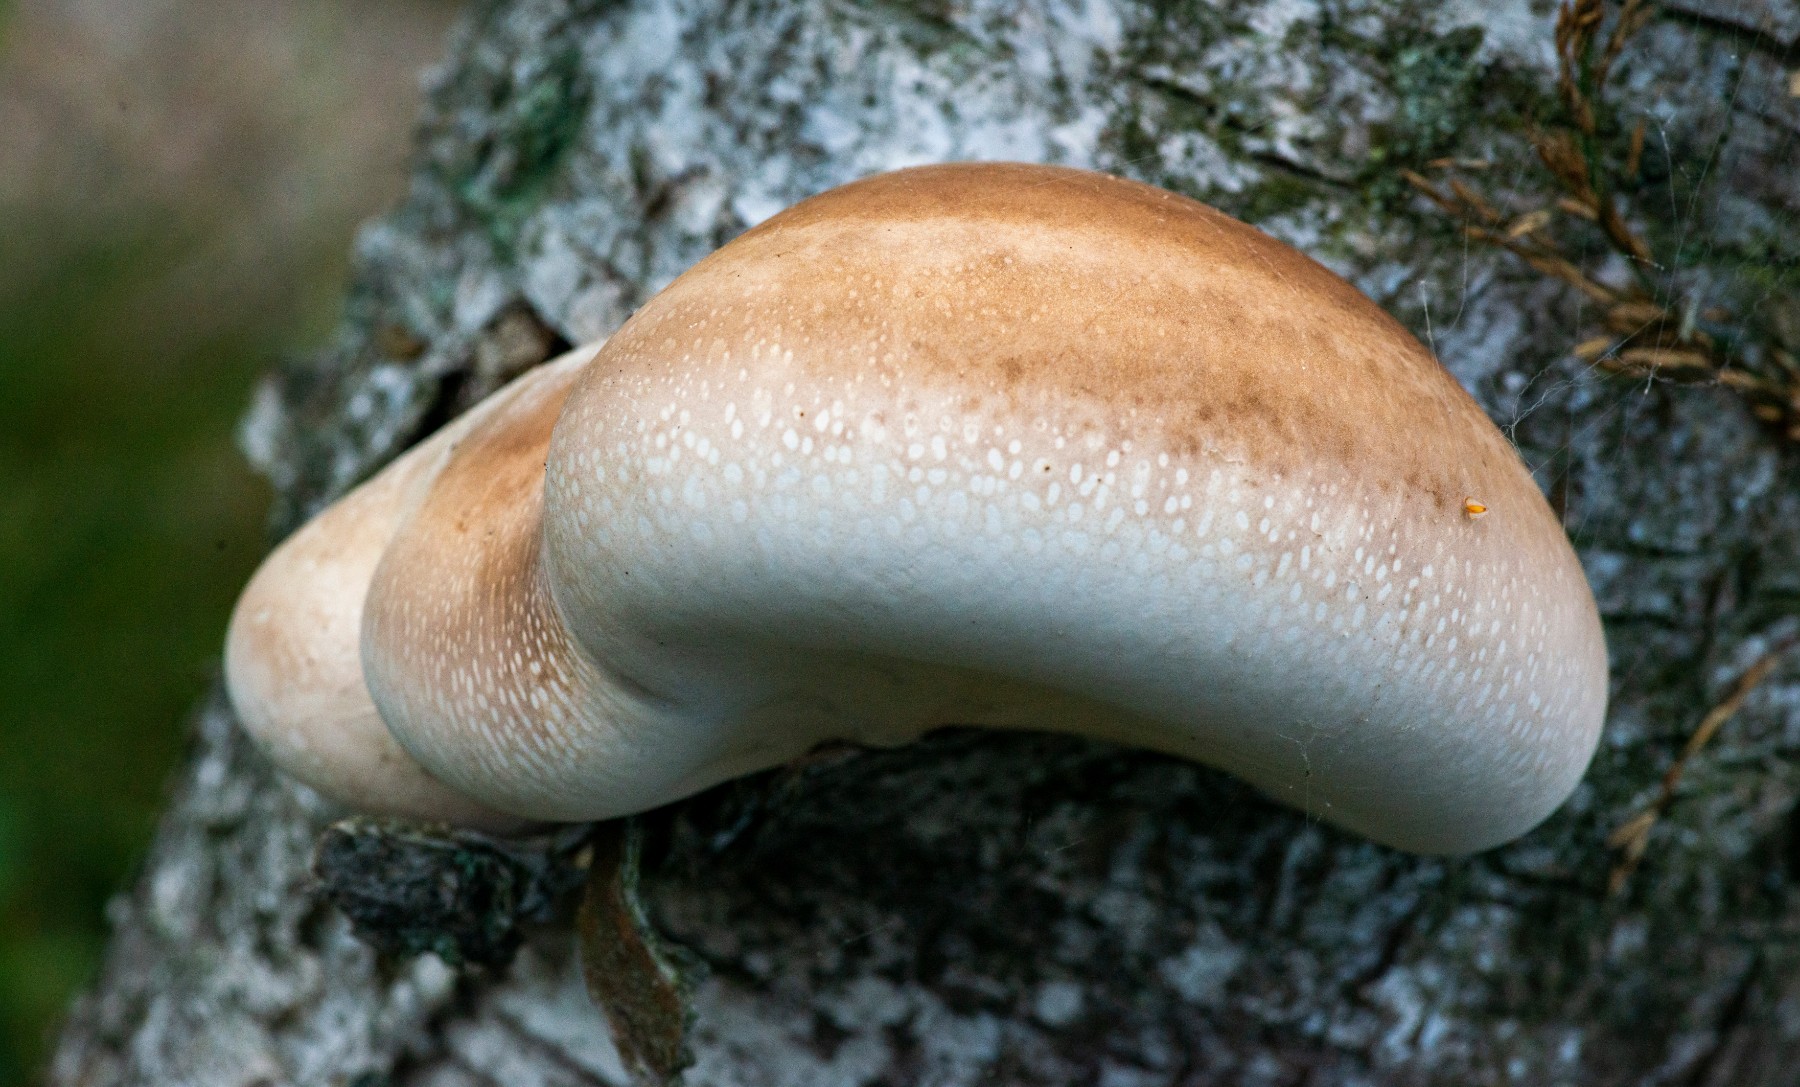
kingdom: Fungi
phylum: Basidiomycota
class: Agaricomycetes
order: Polyporales
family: Fomitopsidaceae
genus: Fomitopsis
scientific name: Fomitopsis
